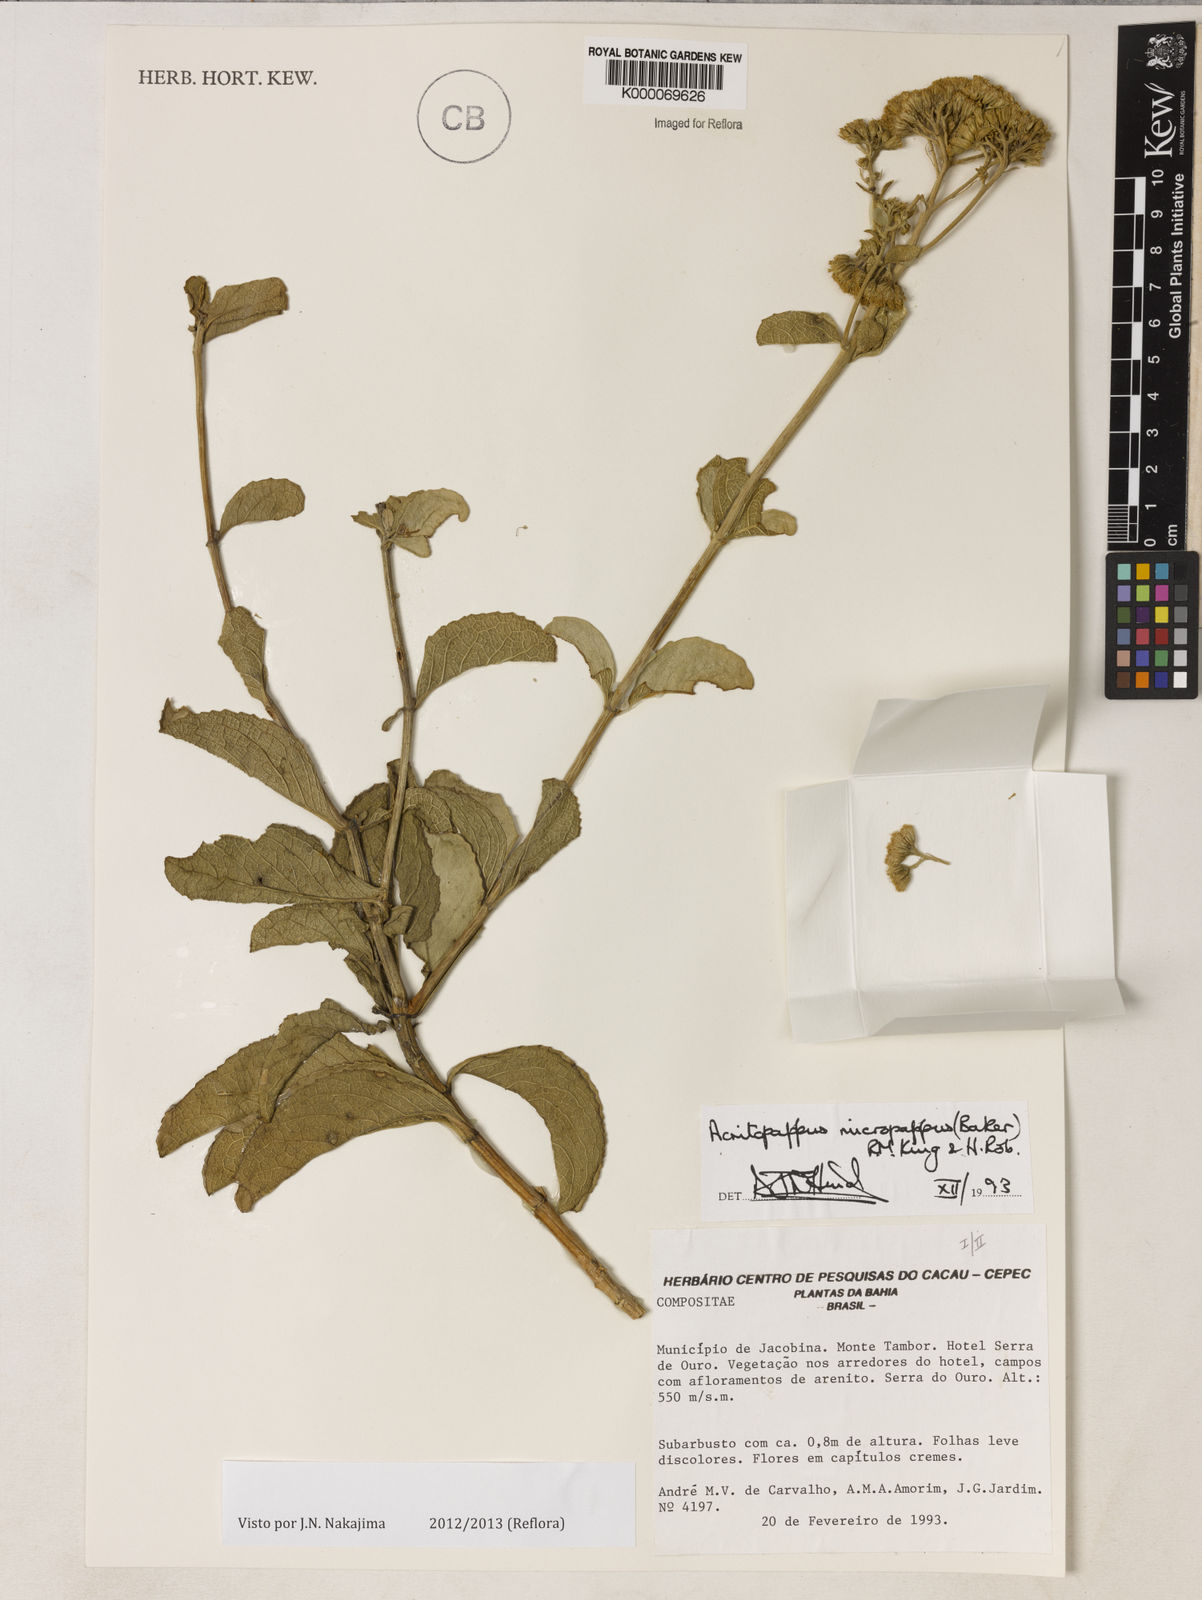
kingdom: Plantae
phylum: Tracheophyta
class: Magnoliopsida
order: Asterales
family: Asteraceae
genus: Acritopappus
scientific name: Acritopappus micropappus
